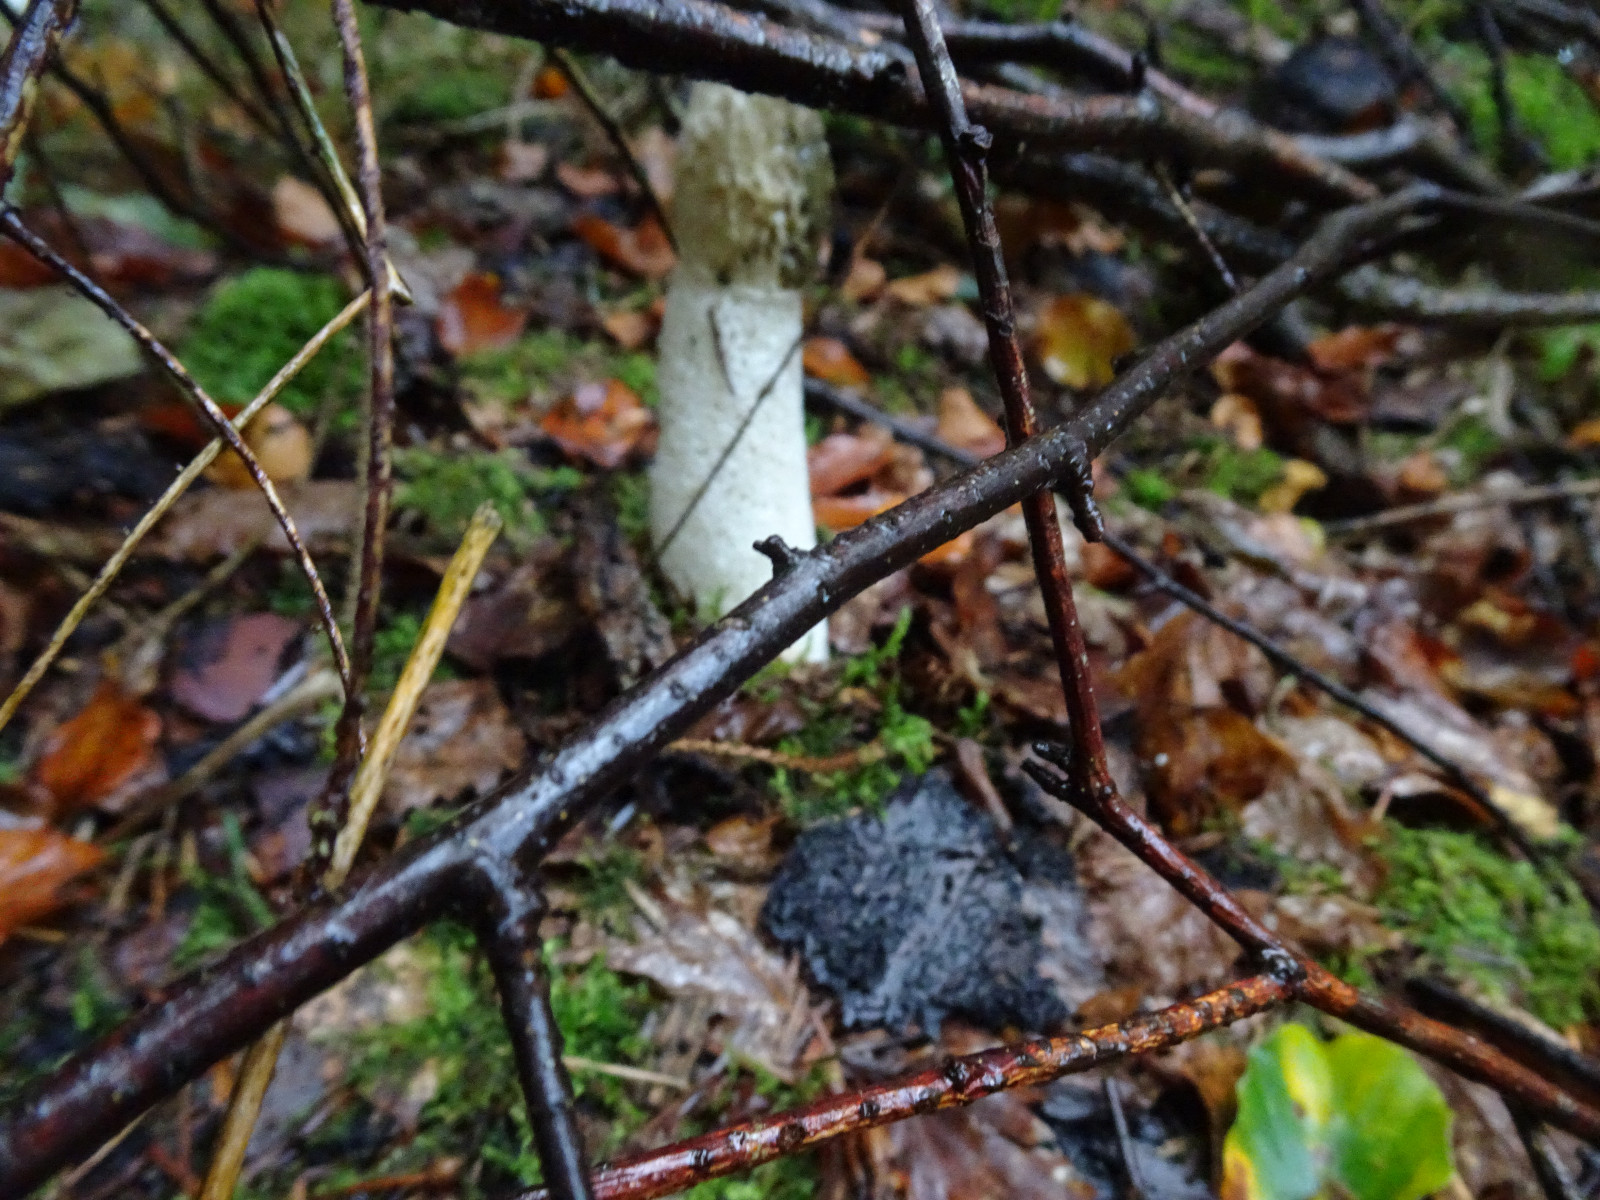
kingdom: Fungi
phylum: Basidiomycota
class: Agaricomycetes
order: Phallales
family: Phallaceae
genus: Phallus
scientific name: Phallus impudicus
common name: almindelig stinksvamp
